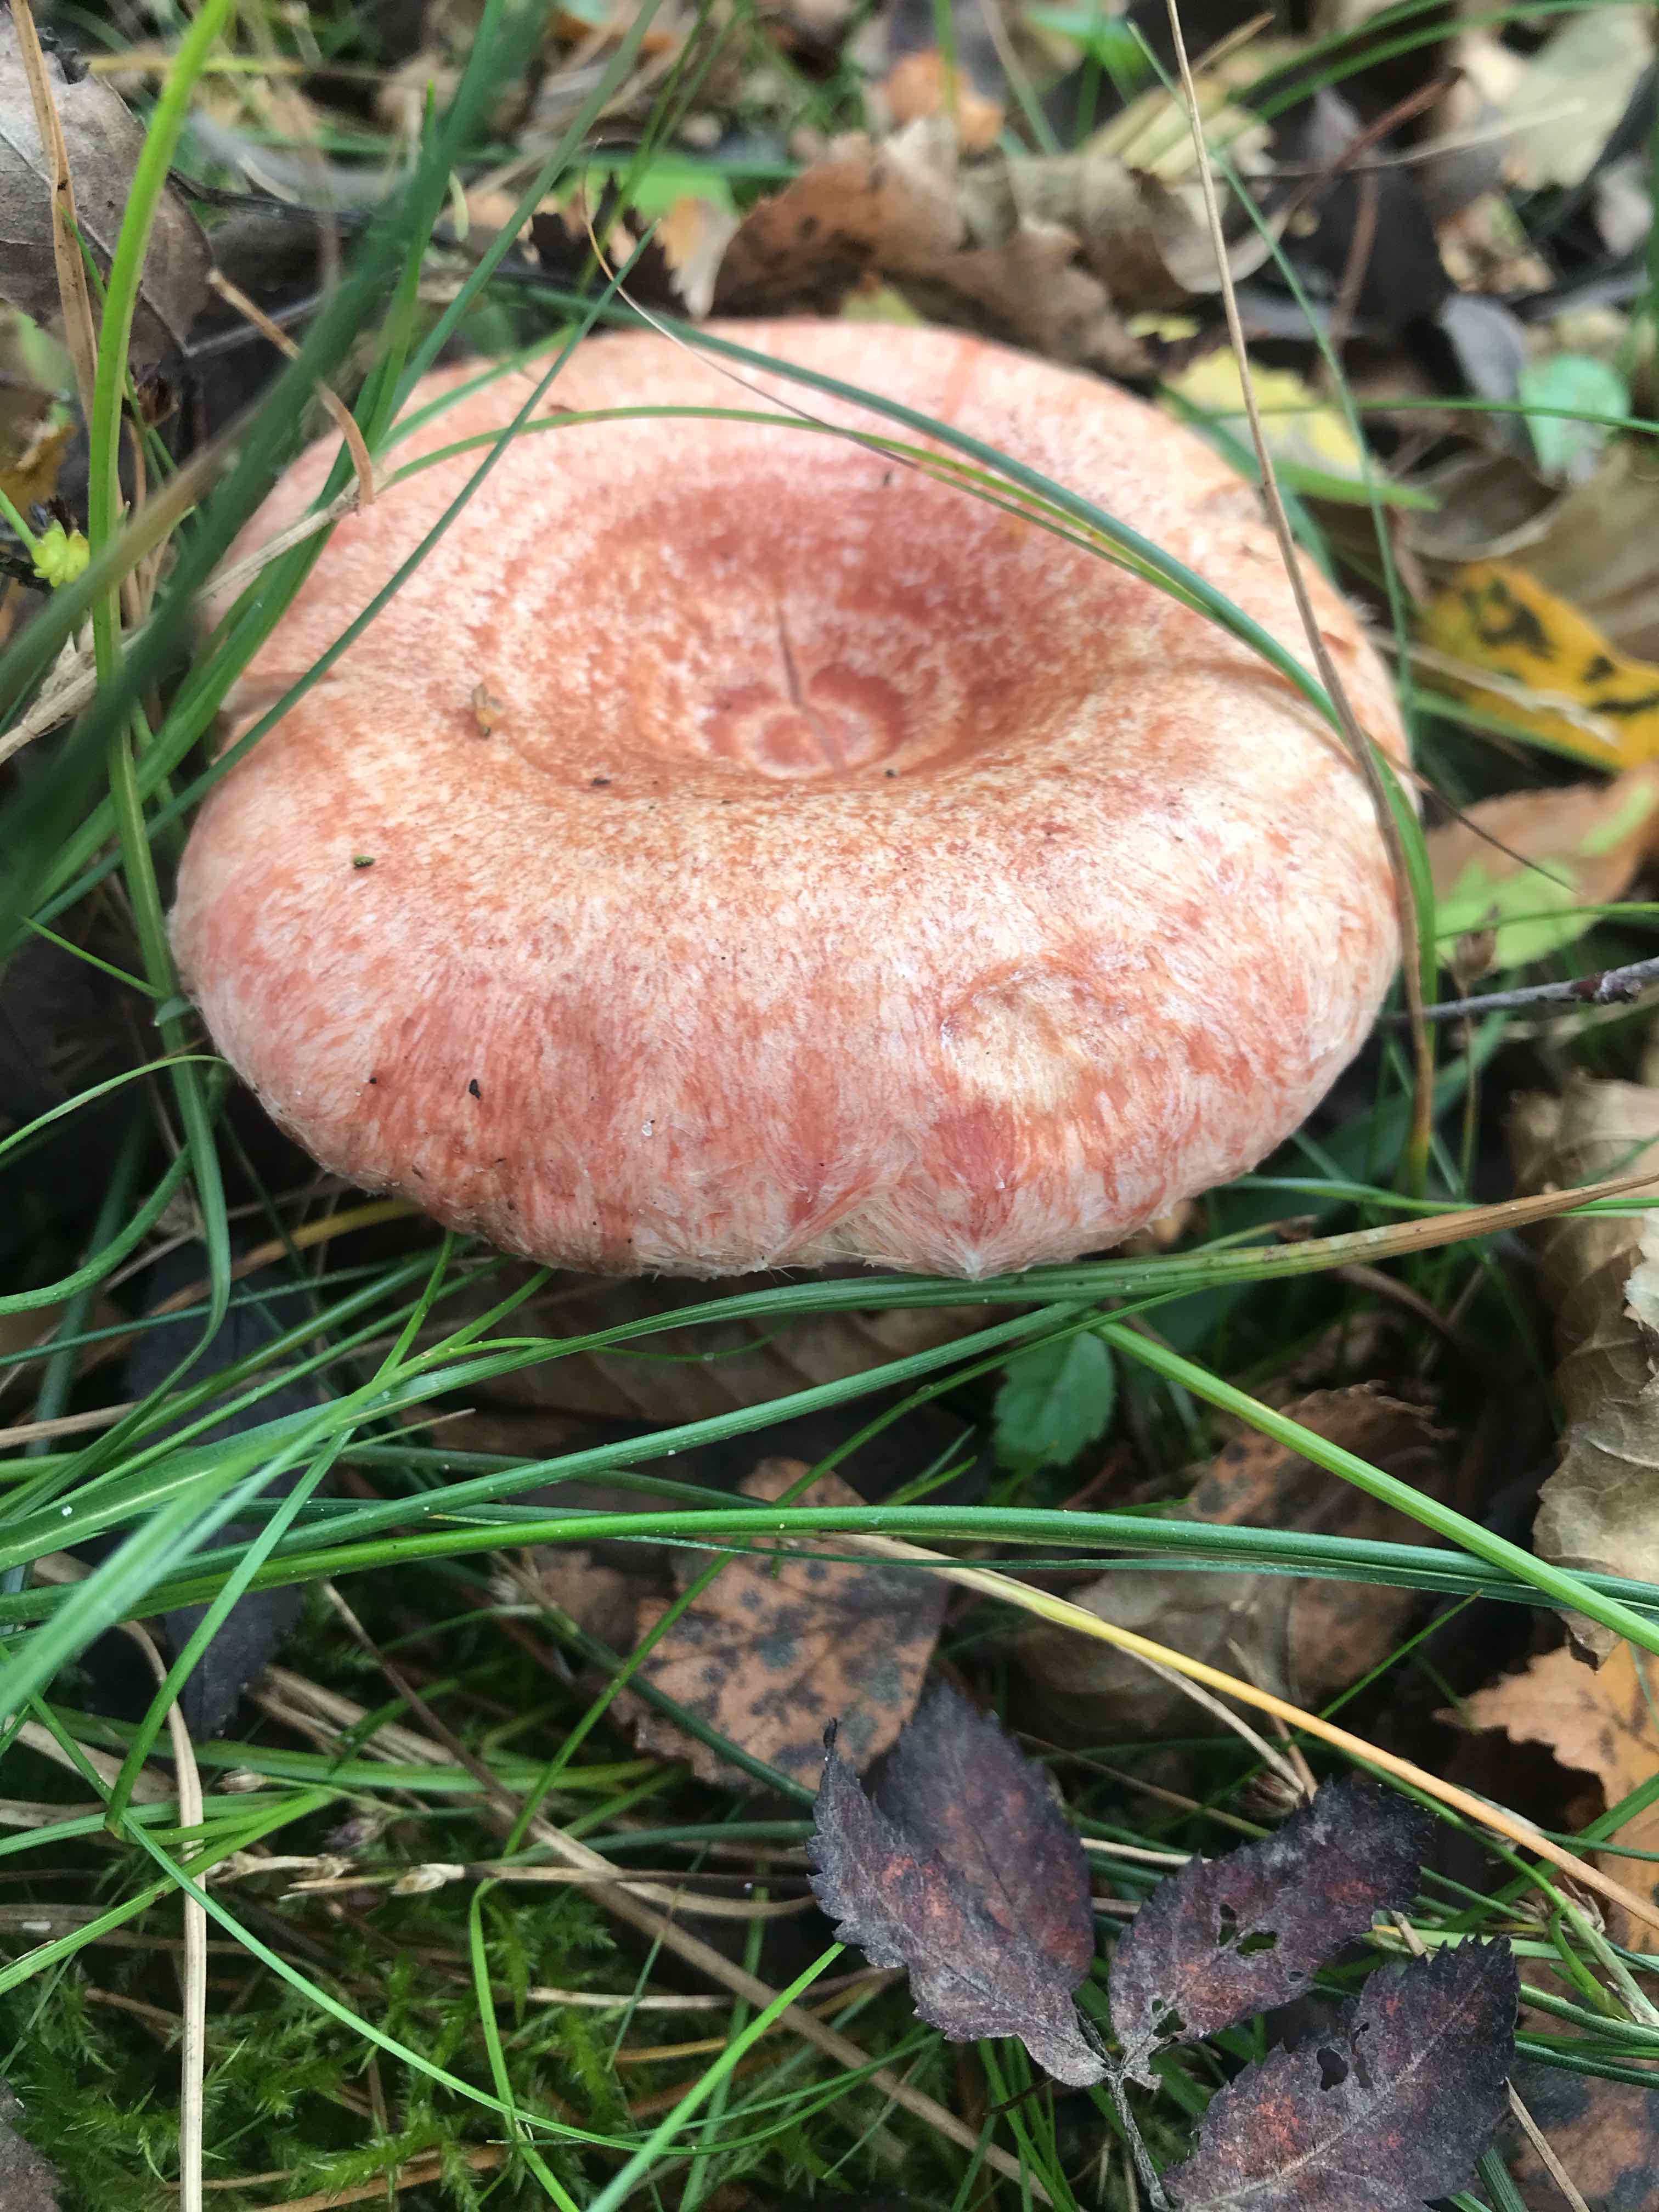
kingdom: Fungi
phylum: Basidiomycota
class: Agaricomycetes
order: Russulales
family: Russulaceae
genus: Lactarius
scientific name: Lactarius torminosus
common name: skægget mælkehat
